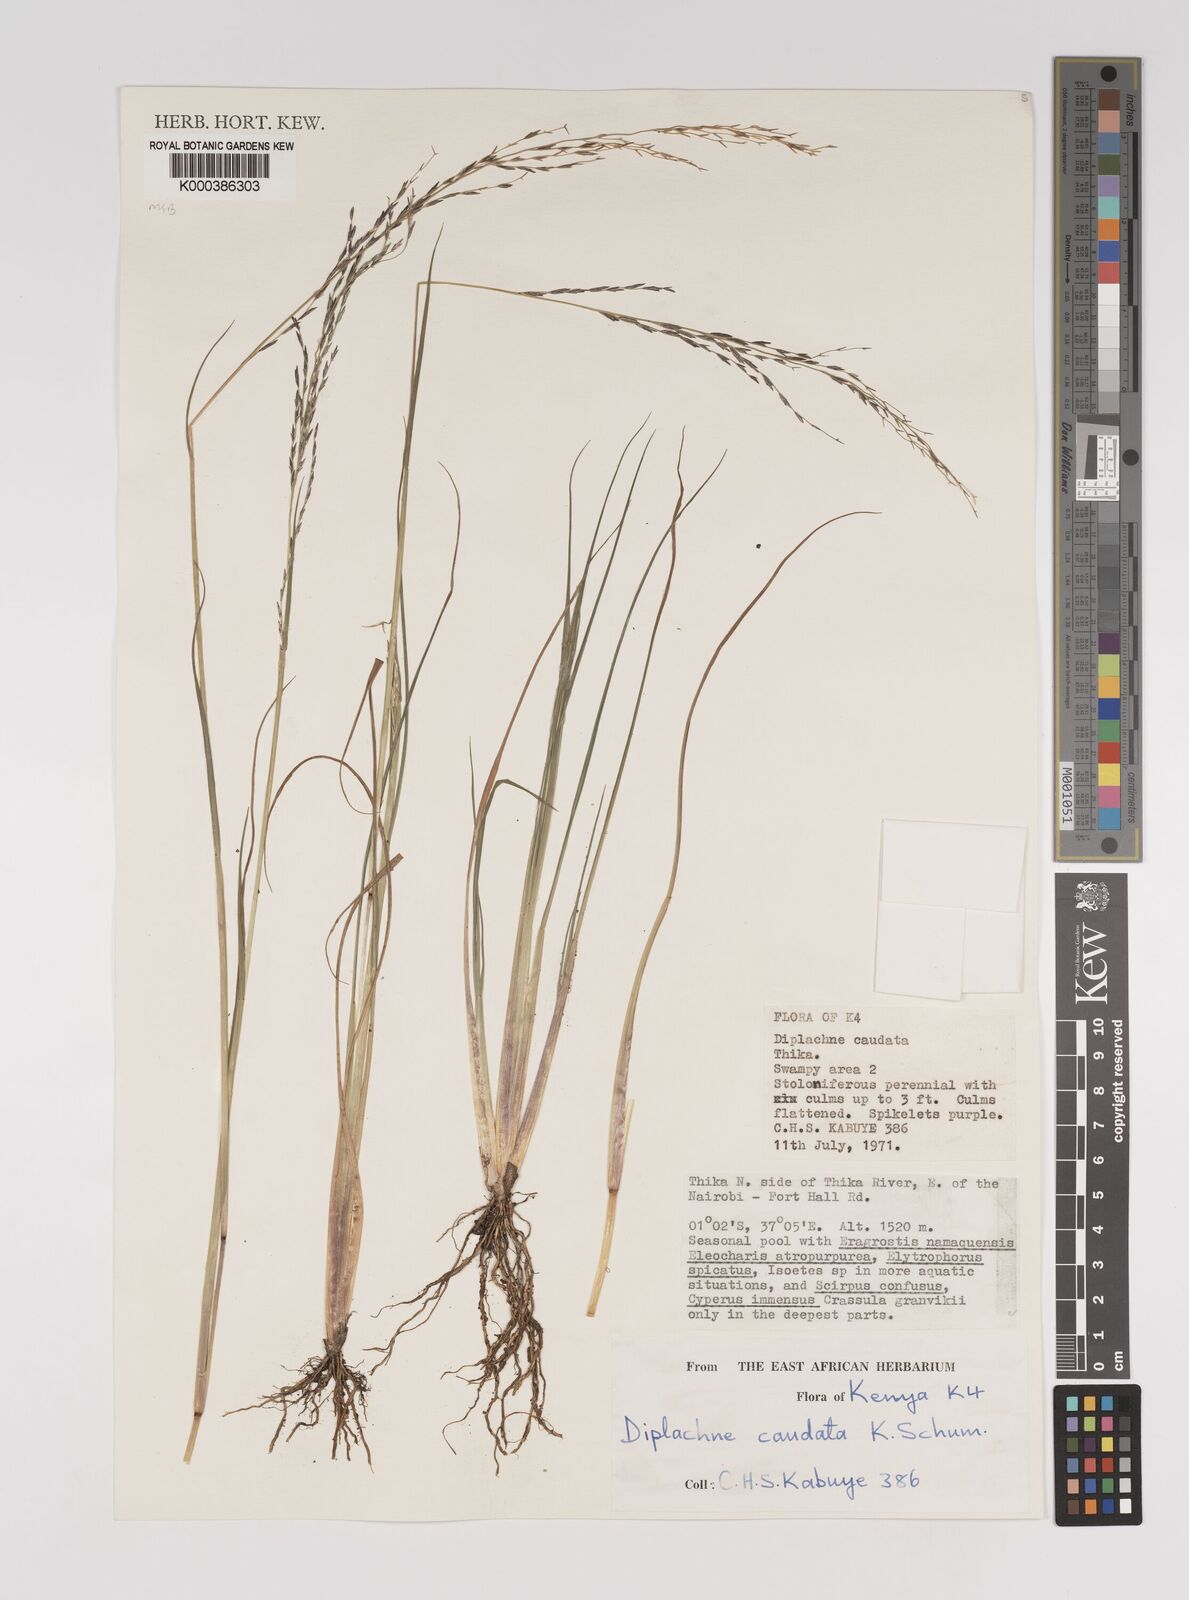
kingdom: Plantae
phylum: Tracheophyta
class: Liliopsida
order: Poales
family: Poaceae
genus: Leptochloa
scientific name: Leptochloa caudata
